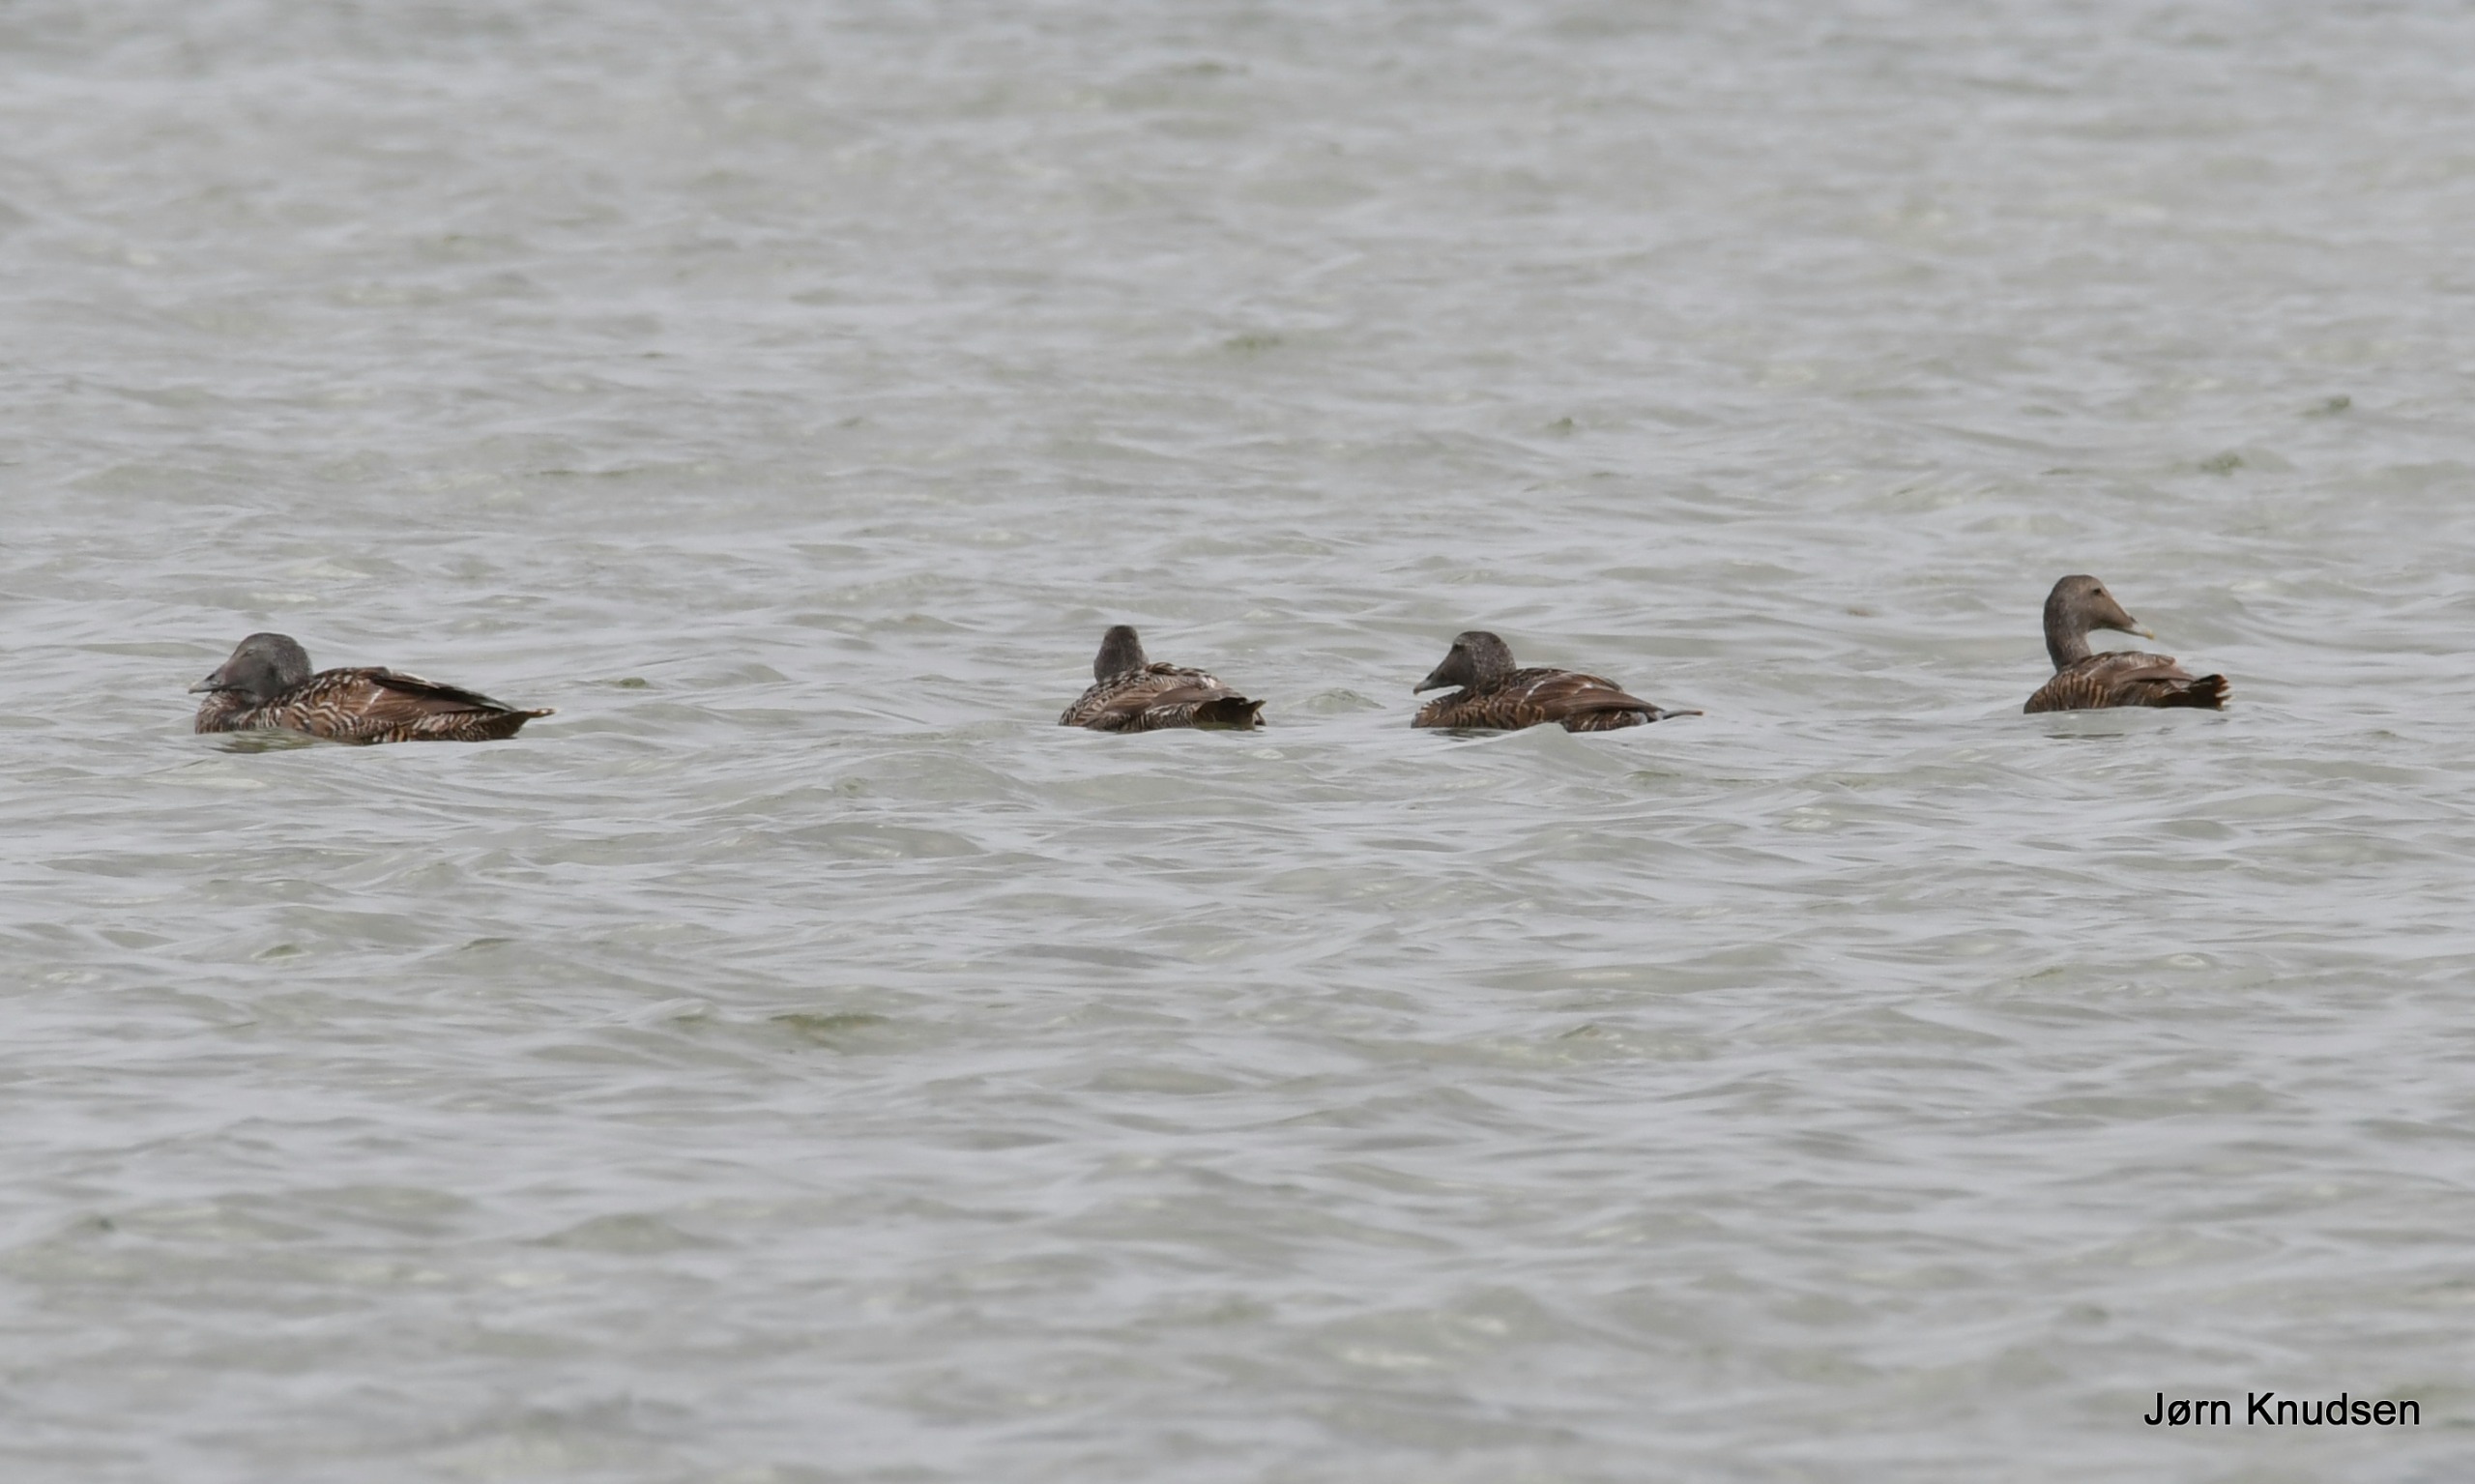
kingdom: Animalia
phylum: Chordata
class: Aves
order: Anseriformes
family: Anatidae
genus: Somateria
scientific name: Somateria mollissima
